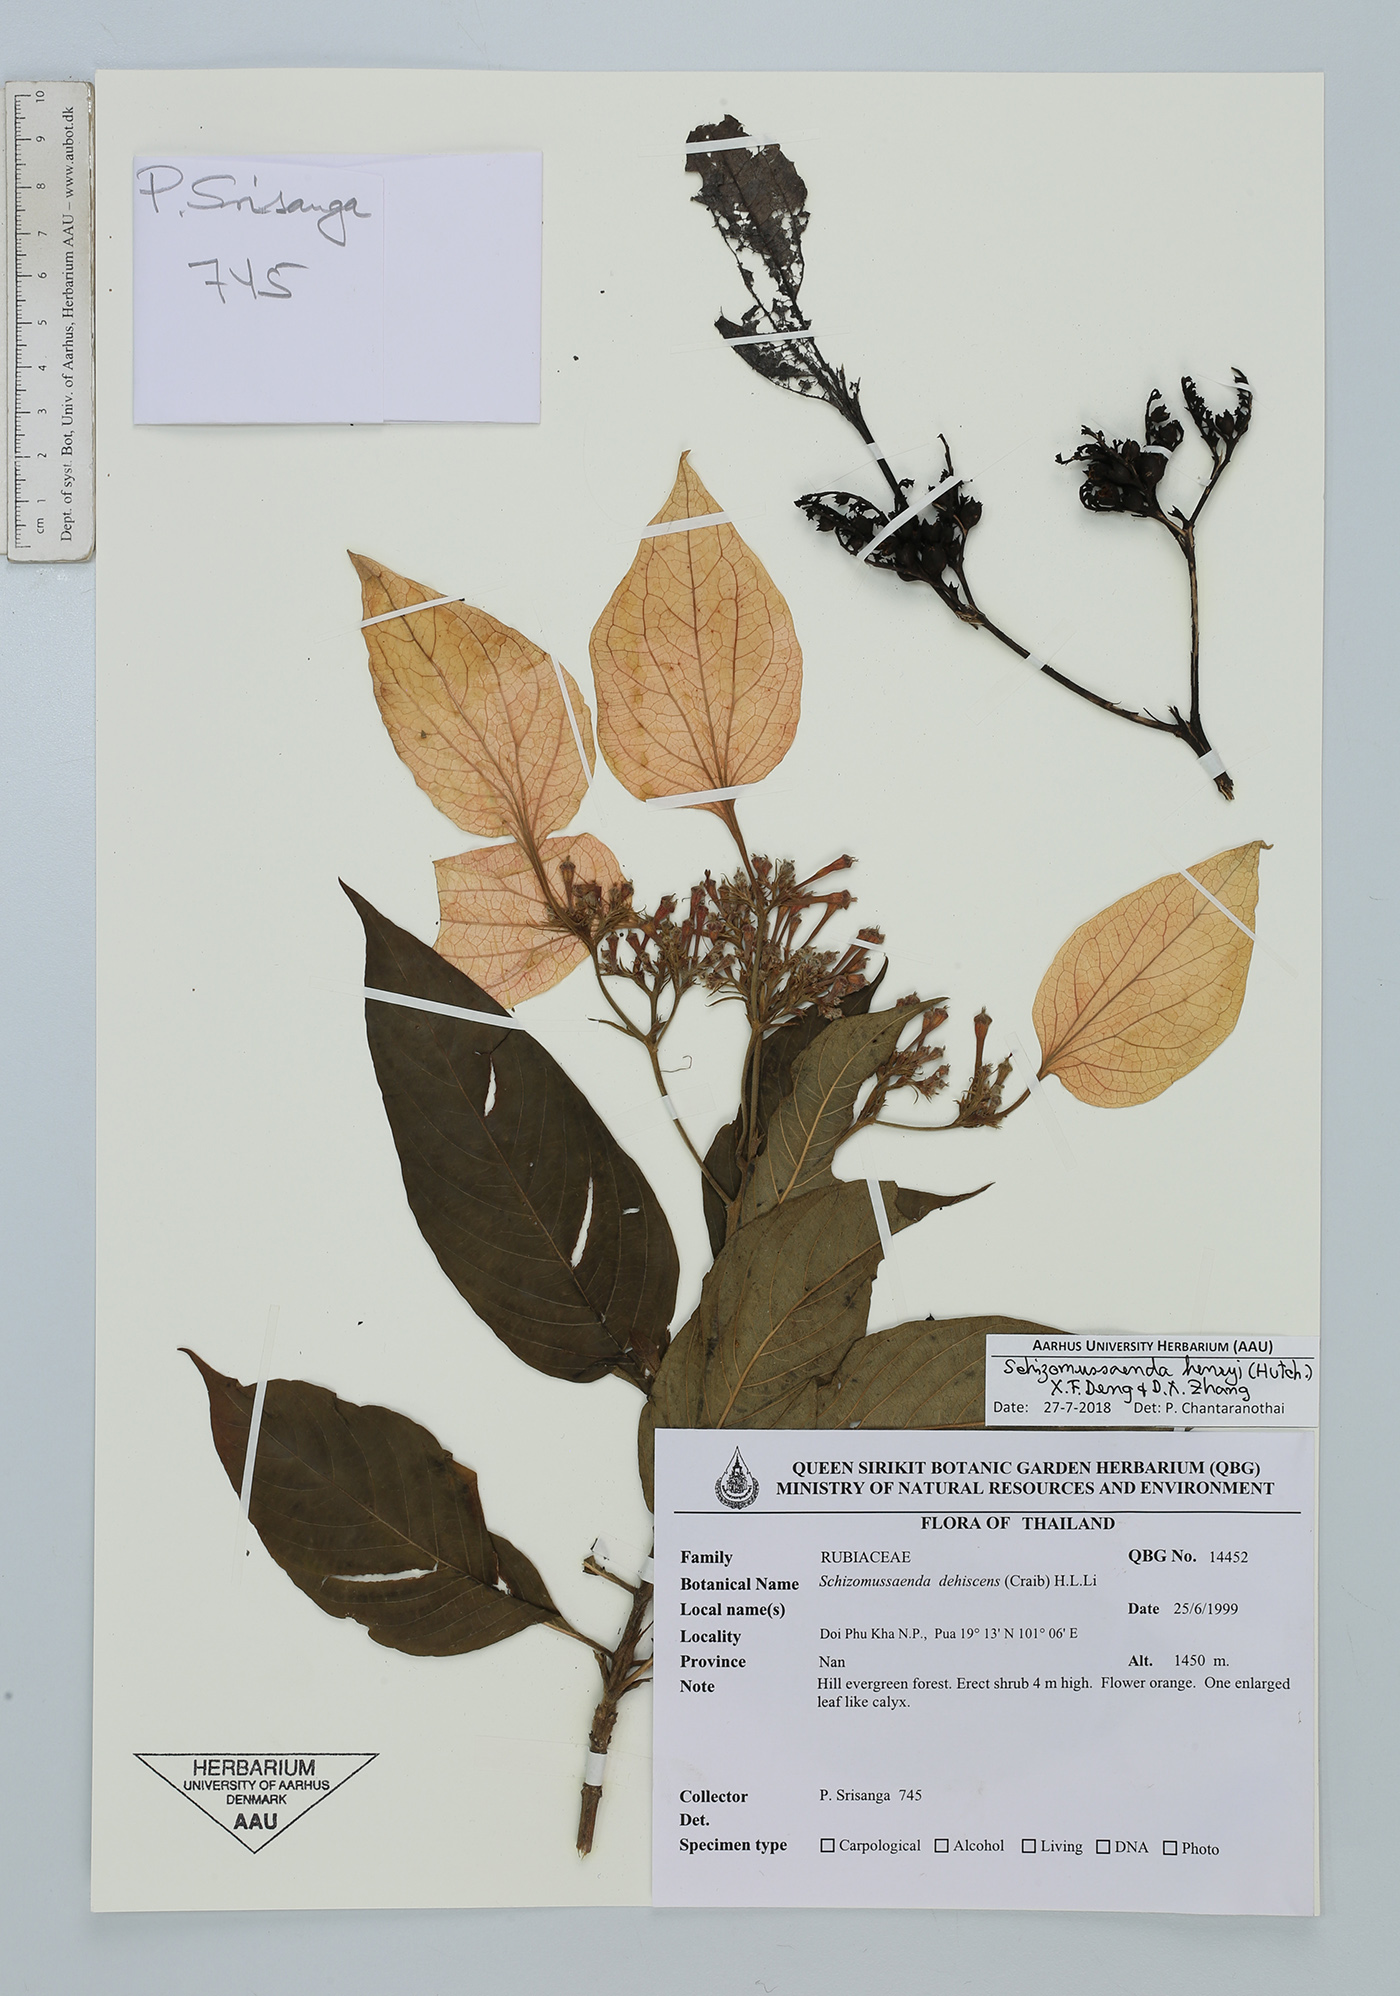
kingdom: Plantae
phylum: Tracheophyta
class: Magnoliopsida
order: Gentianales
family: Rubiaceae
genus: Schizomussaenda
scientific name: Schizomussaenda henryi
